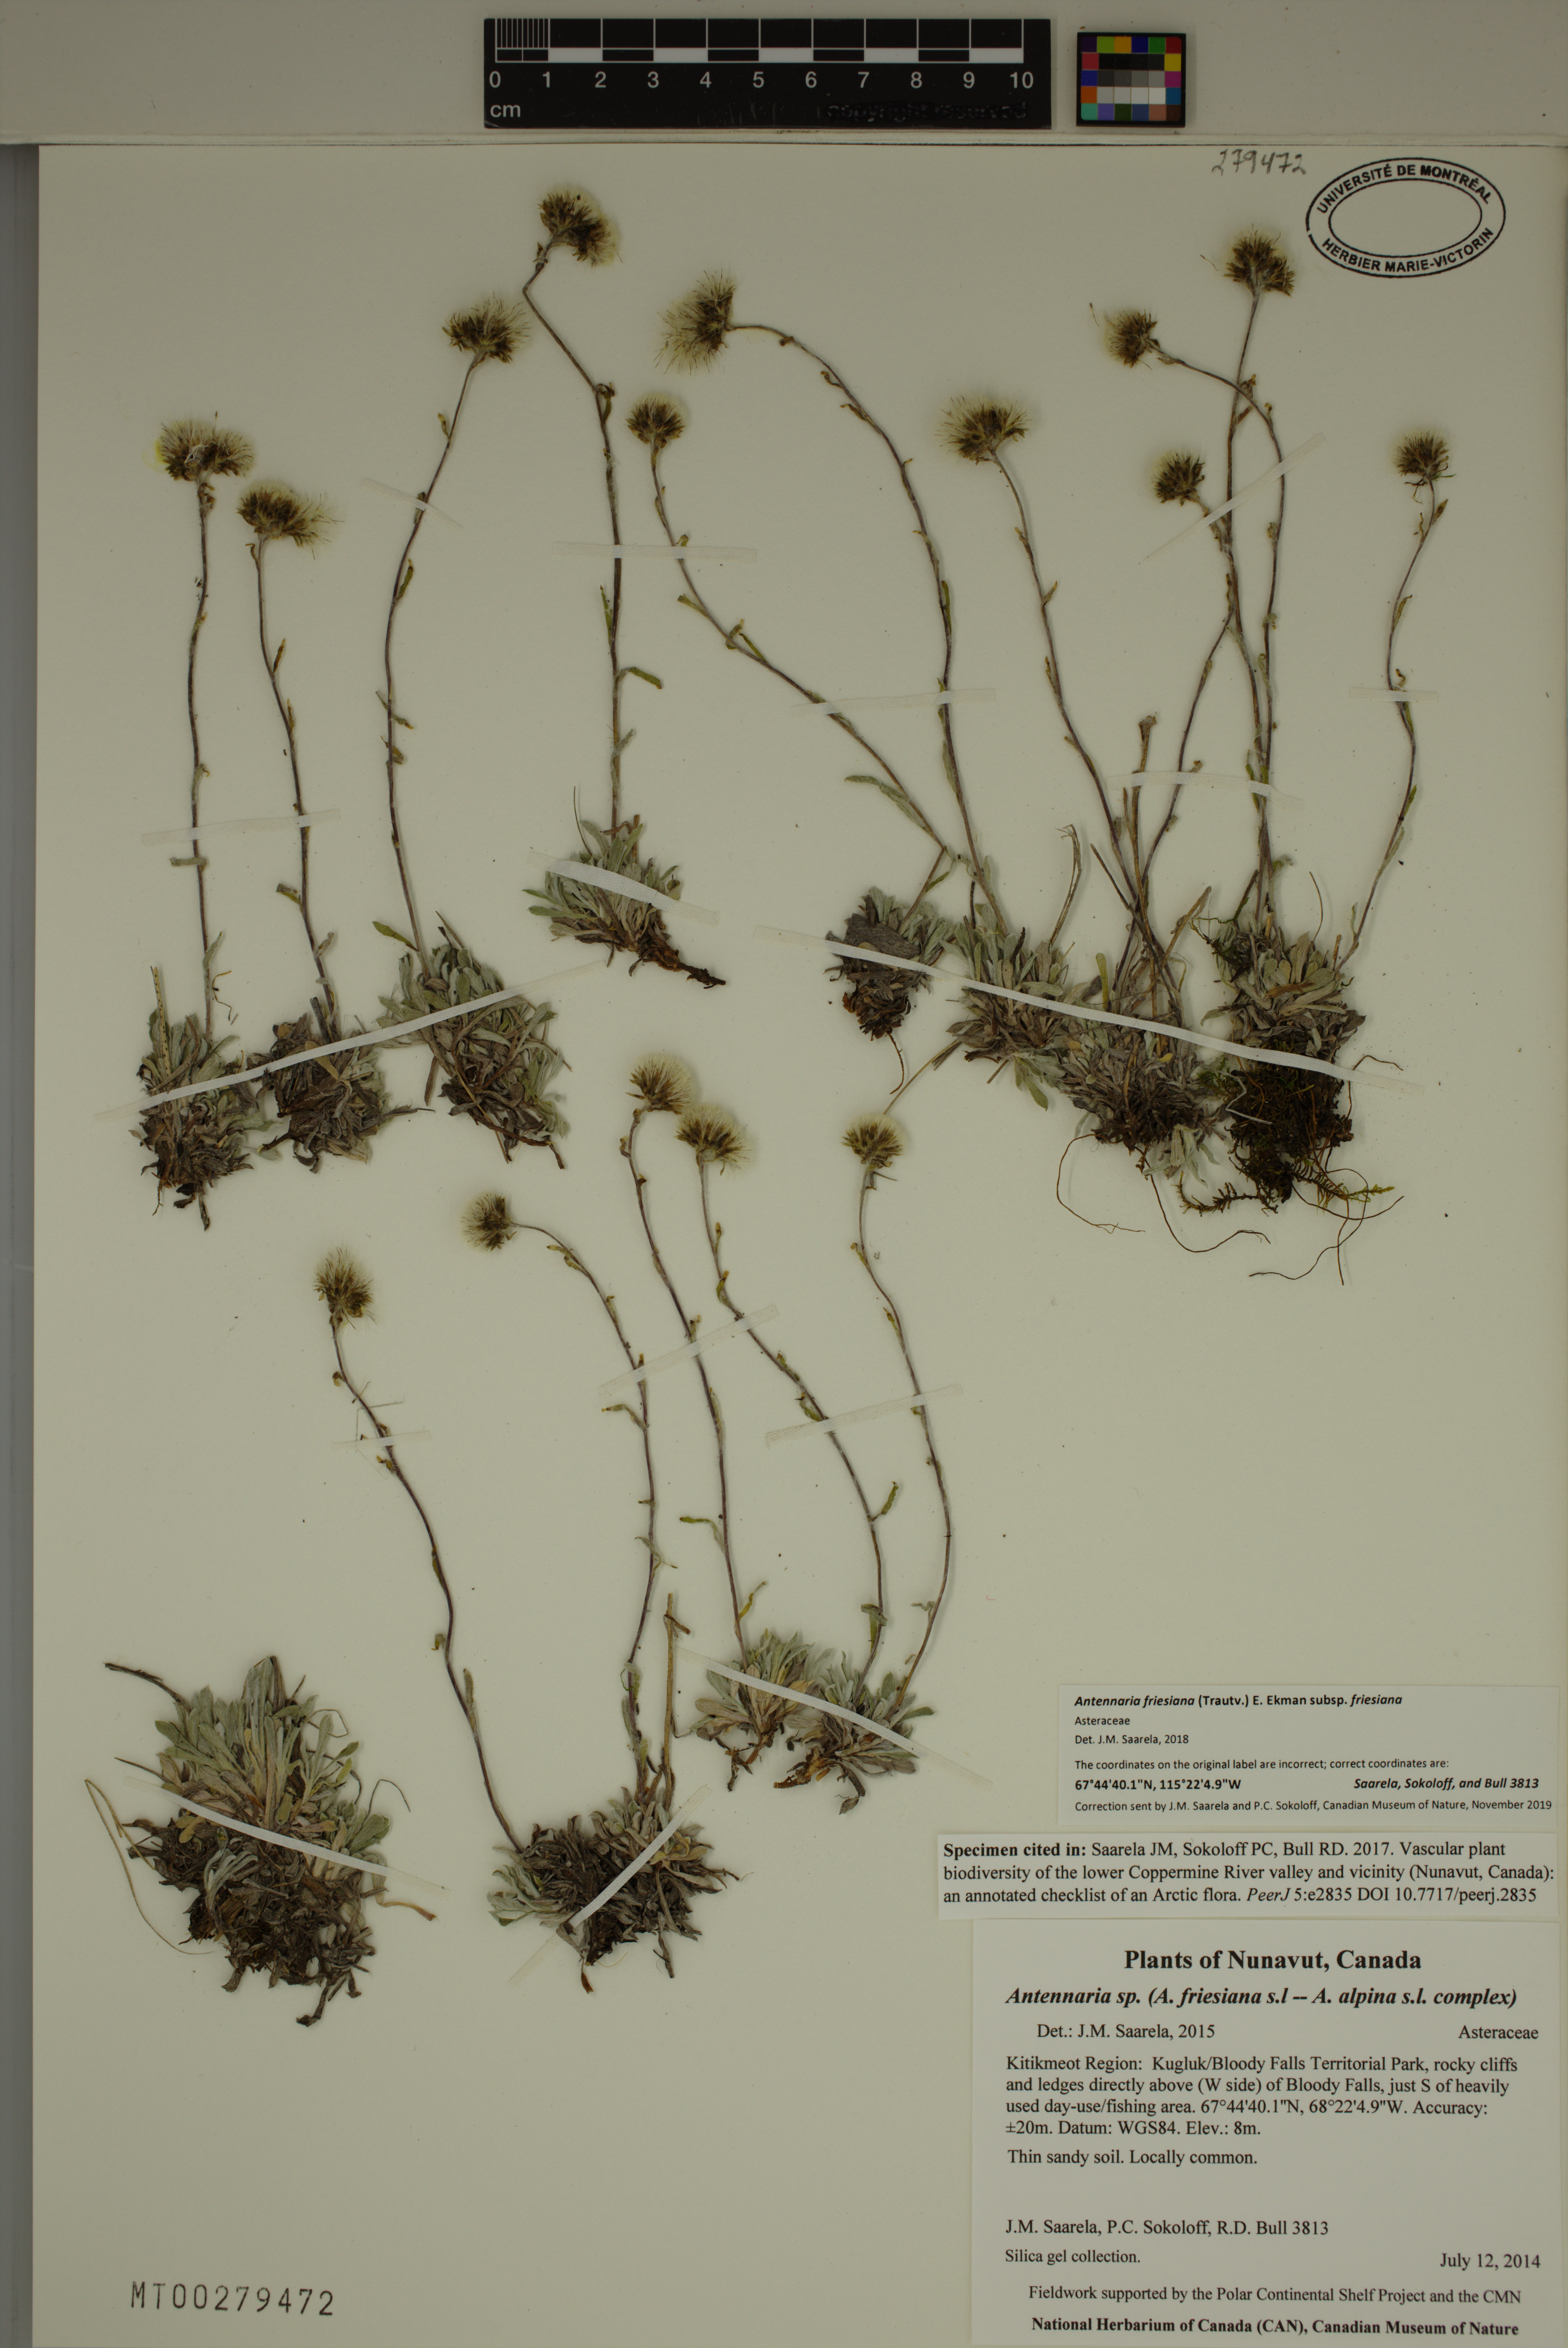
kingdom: Plantae
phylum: Tracheophyta
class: Magnoliopsida
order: Asterales
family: Asteraceae
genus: Antennaria
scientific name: Antennaria friesiana
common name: Fries' pussytoes
